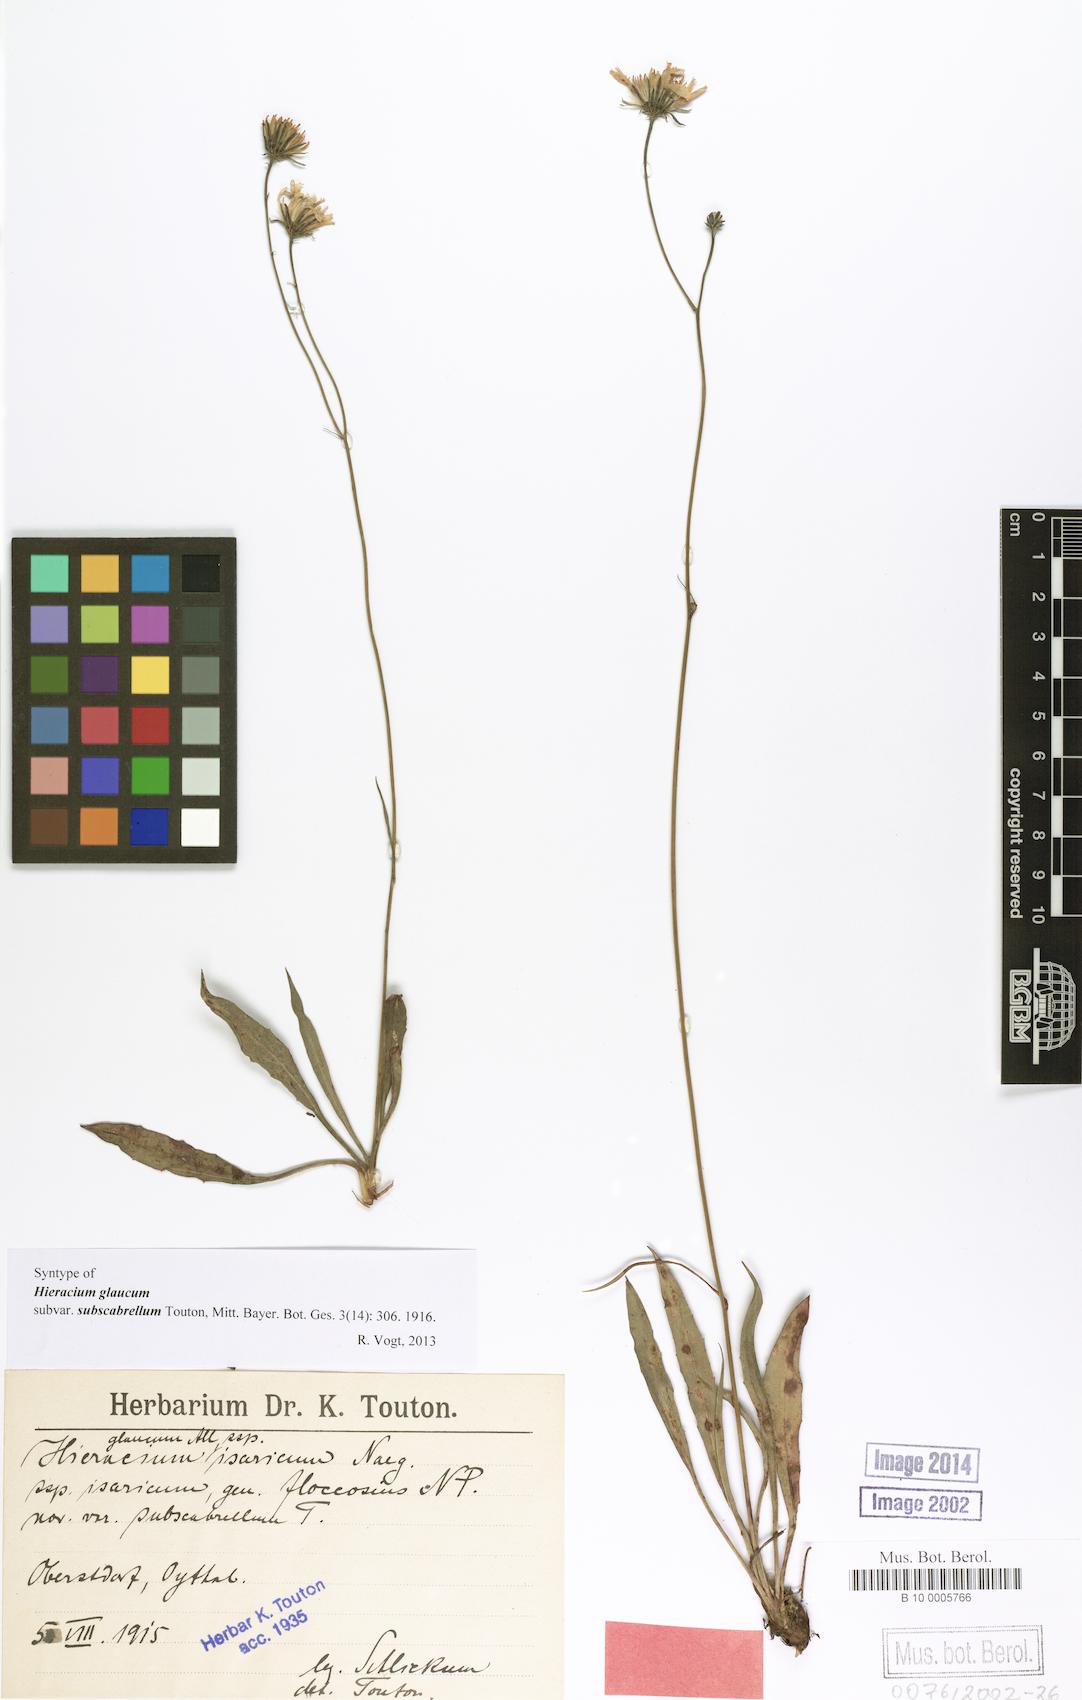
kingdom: Plantae
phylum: Tracheophyta
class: Magnoliopsida
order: Asterales
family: Asteraceae
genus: Hieracium
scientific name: Hieracium glaucum
